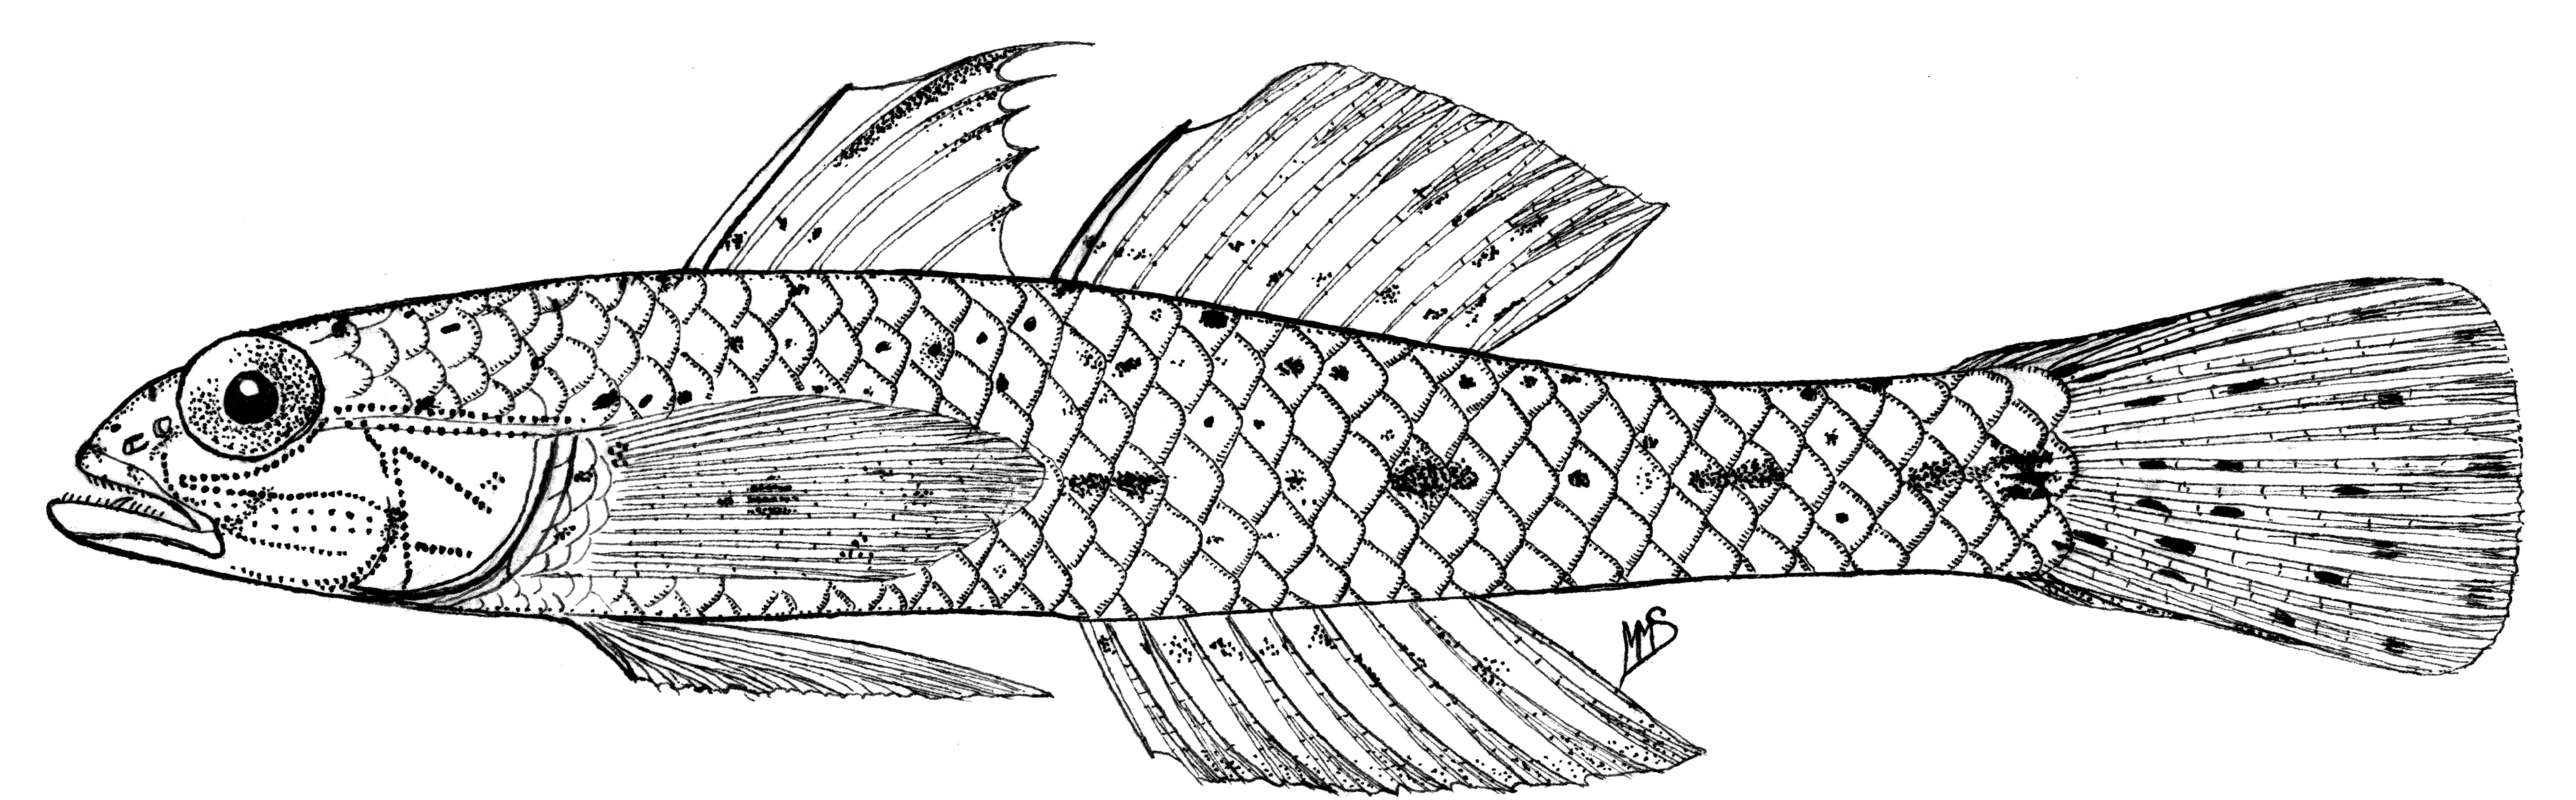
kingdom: Animalia
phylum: Chordata
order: Perciformes
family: Gobiidae
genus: Hazeus
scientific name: Hazeus
